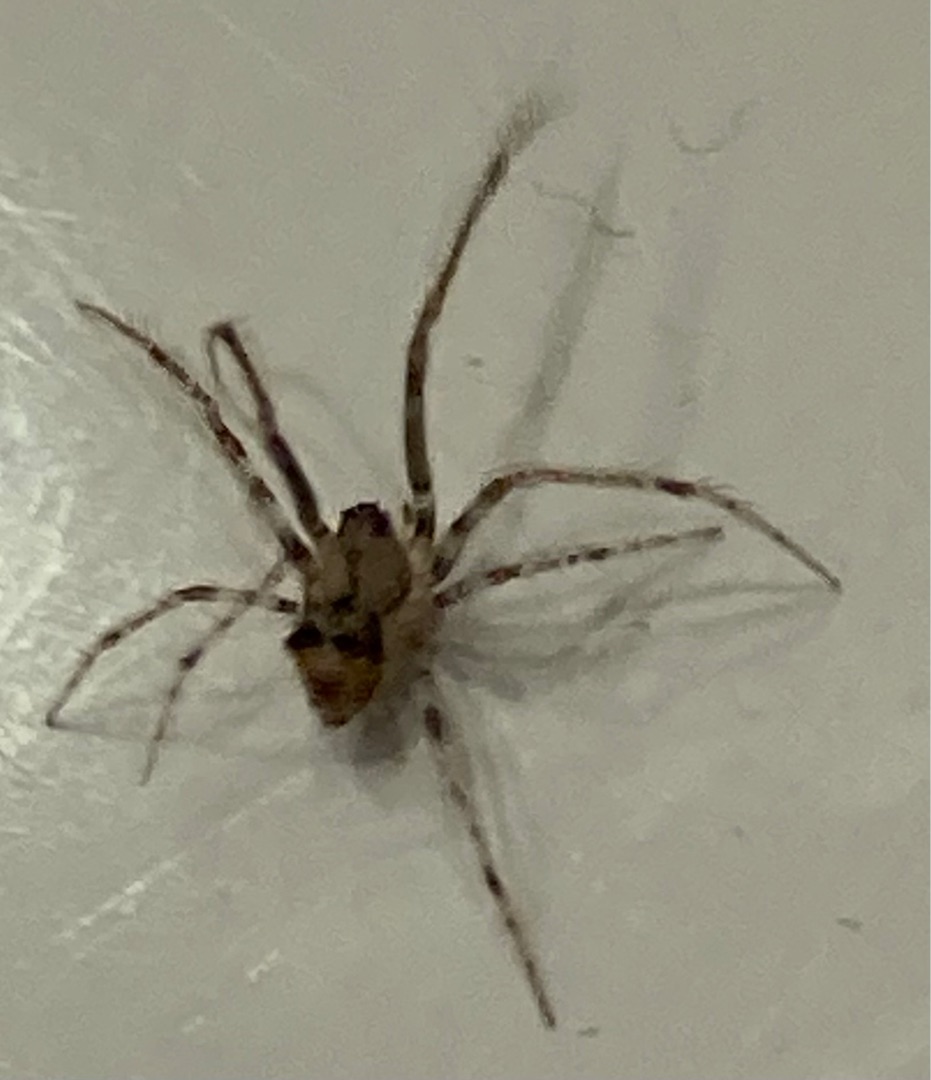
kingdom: Animalia
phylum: Arthropoda
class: Arachnida
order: Araneae
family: Mimetidae
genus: Ero
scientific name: Ero tuberculata
